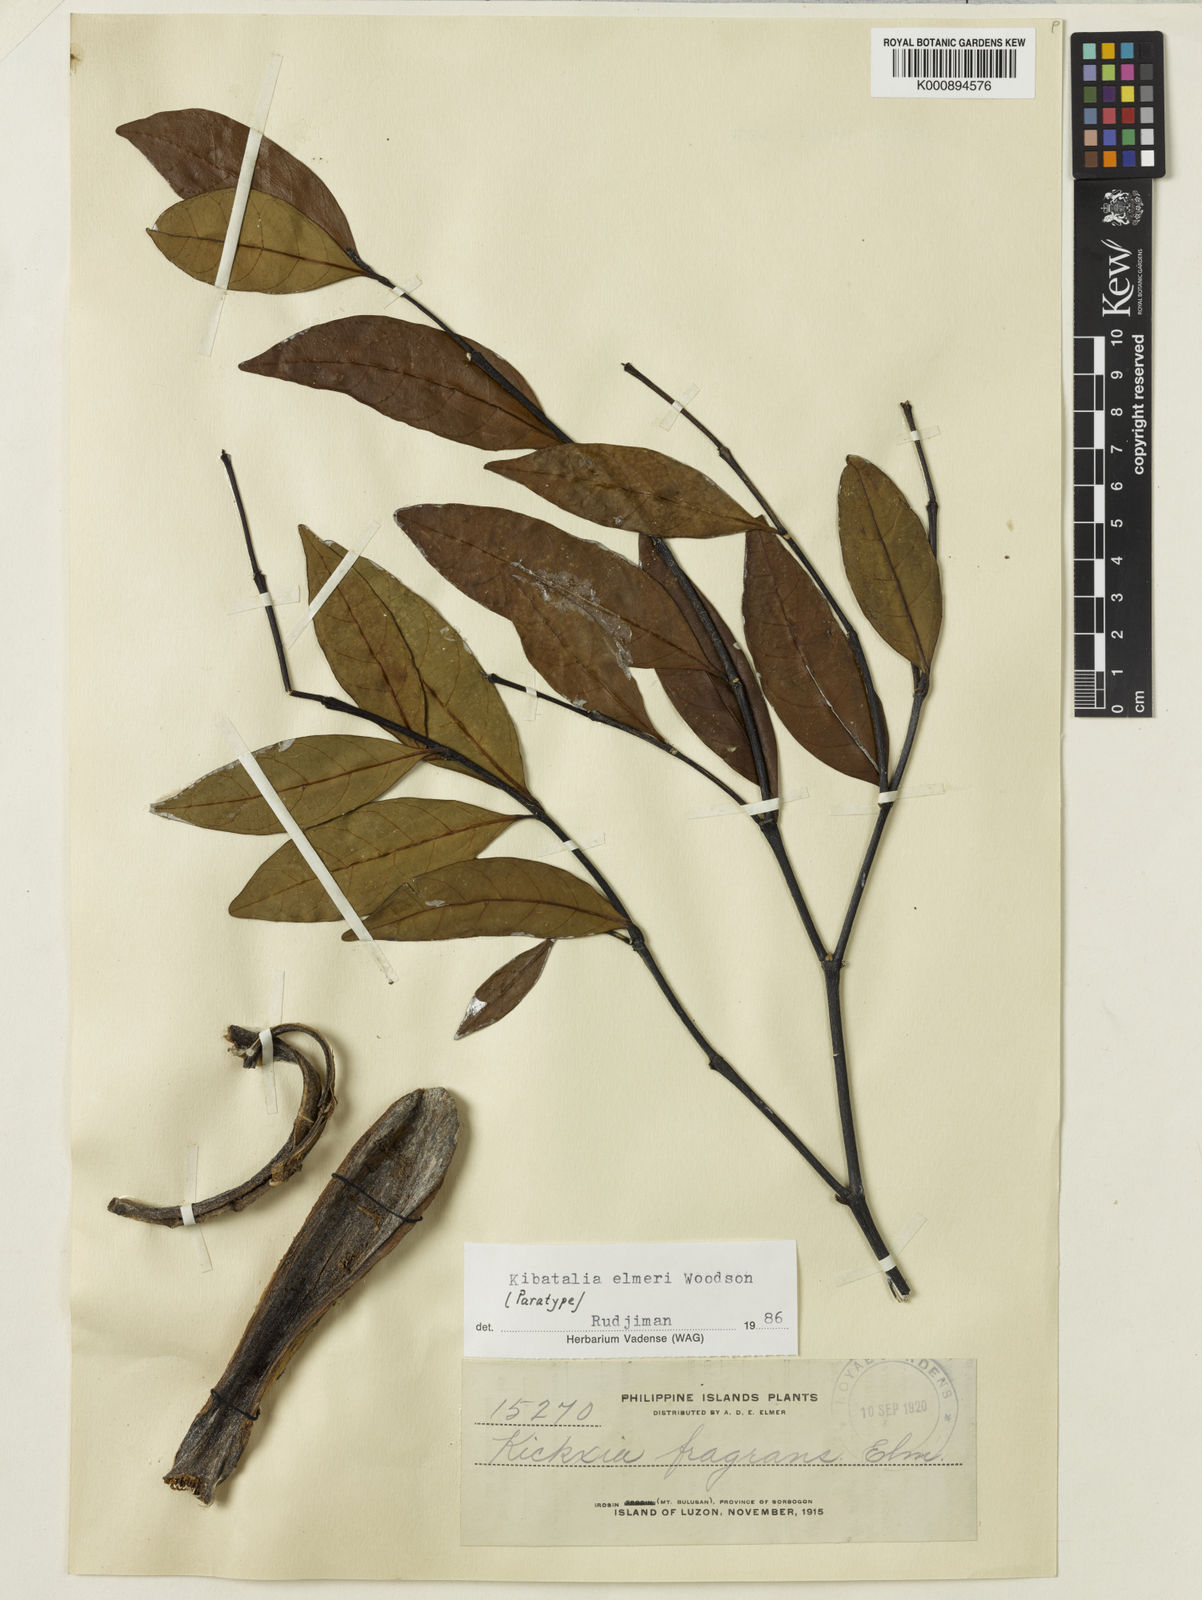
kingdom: Plantae
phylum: Tracheophyta
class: Magnoliopsida
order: Gentianales
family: Apocynaceae
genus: Kibatalia
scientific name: Kibatalia elmeri
